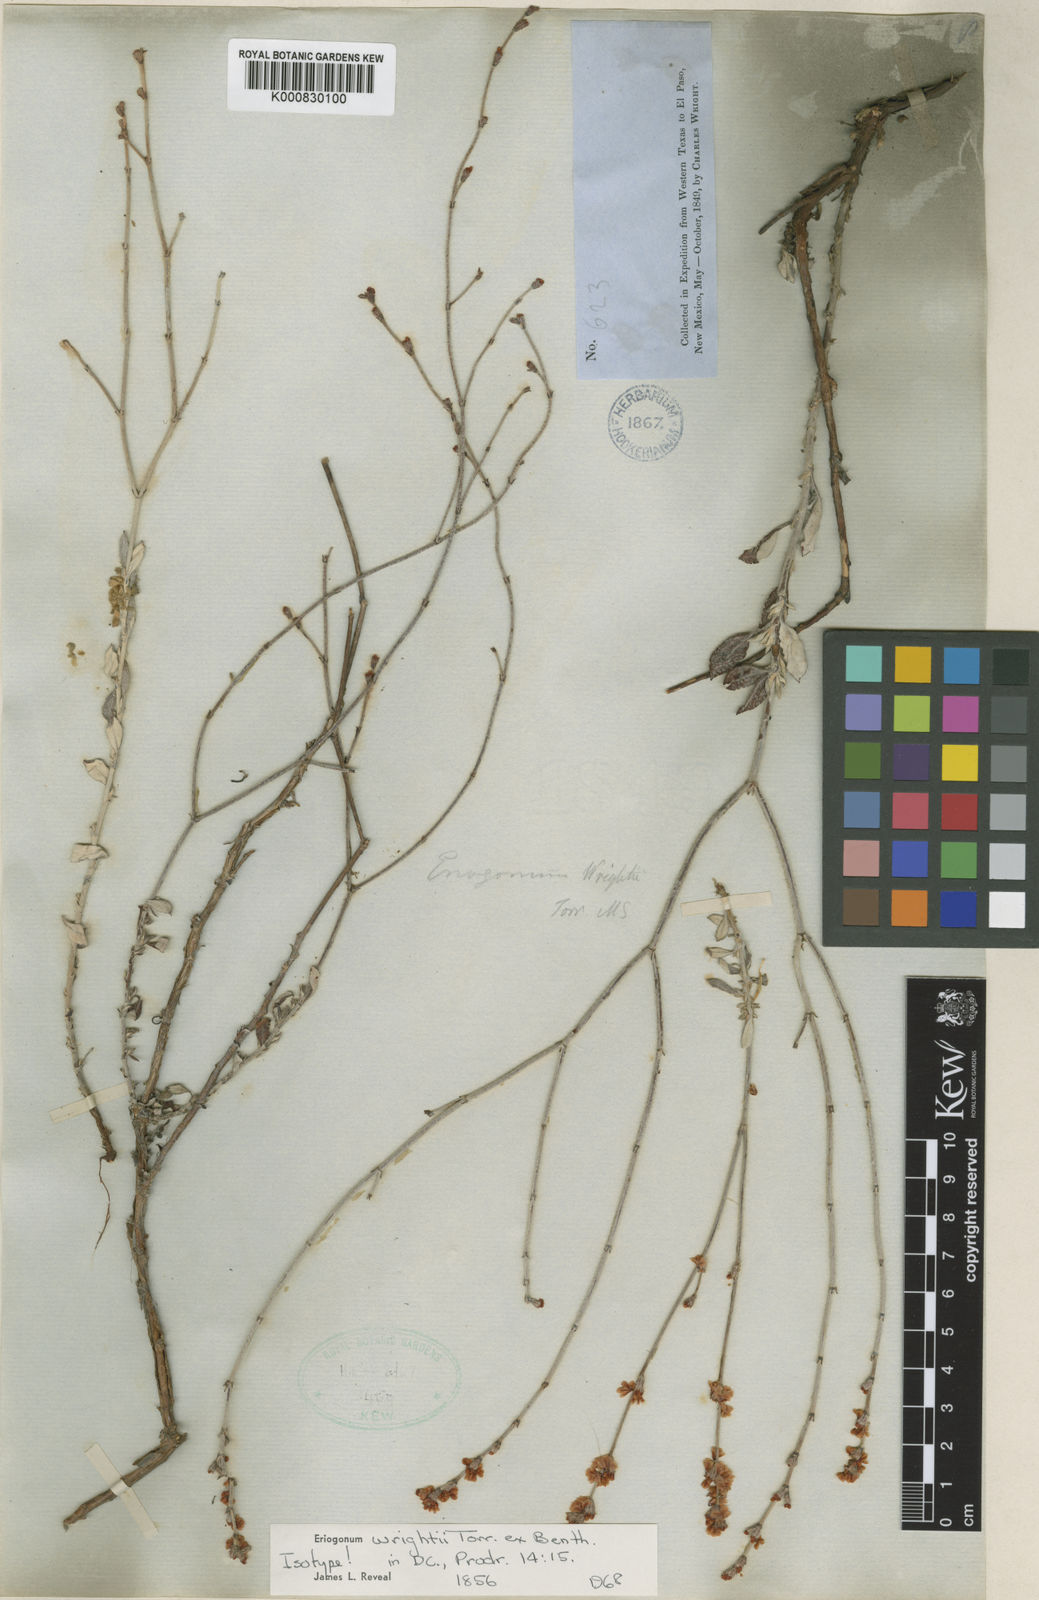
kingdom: Plantae
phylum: Tracheophyta
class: Magnoliopsida
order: Caryophyllales
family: Polygonaceae
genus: Eriogonum
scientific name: Eriogonum wrightii
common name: Bastard-sage
